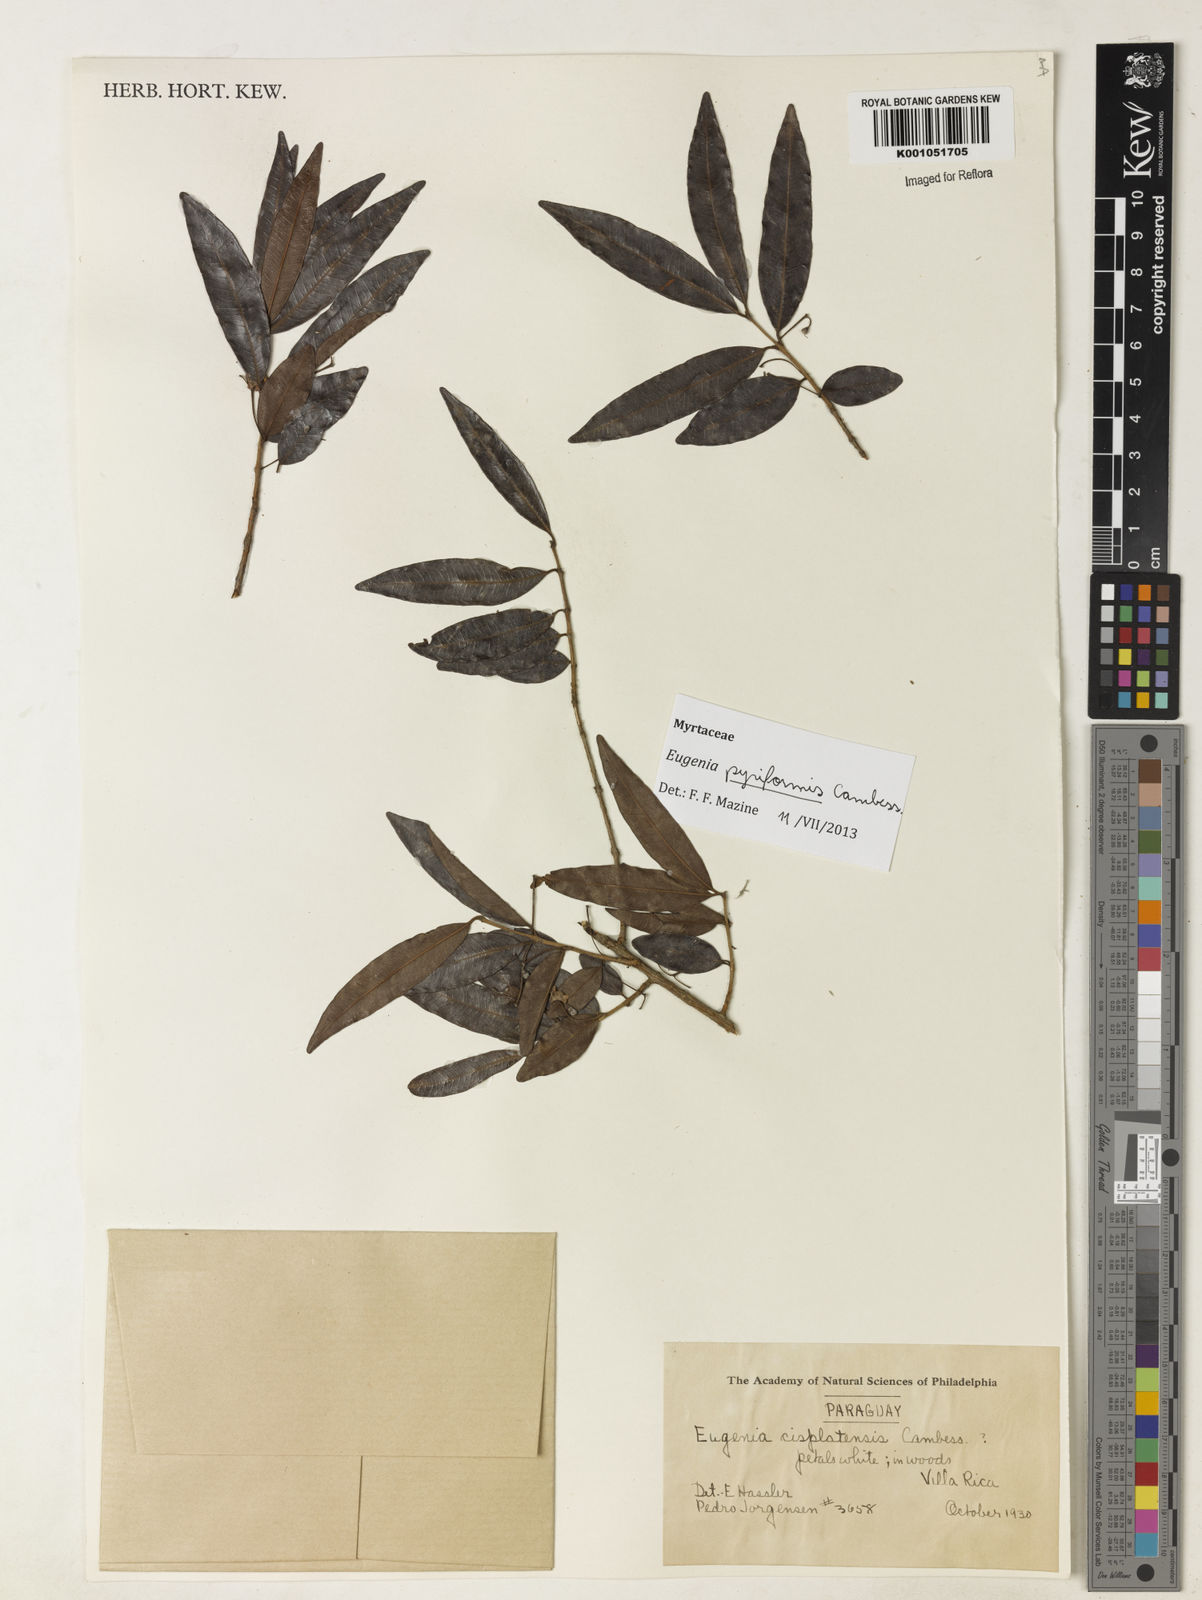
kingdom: Plantae
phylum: Tracheophyta
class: Magnoliopsida
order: Myrtales
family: Myrtaceae
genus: Eugenia
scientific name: Eugenia pyriformis
